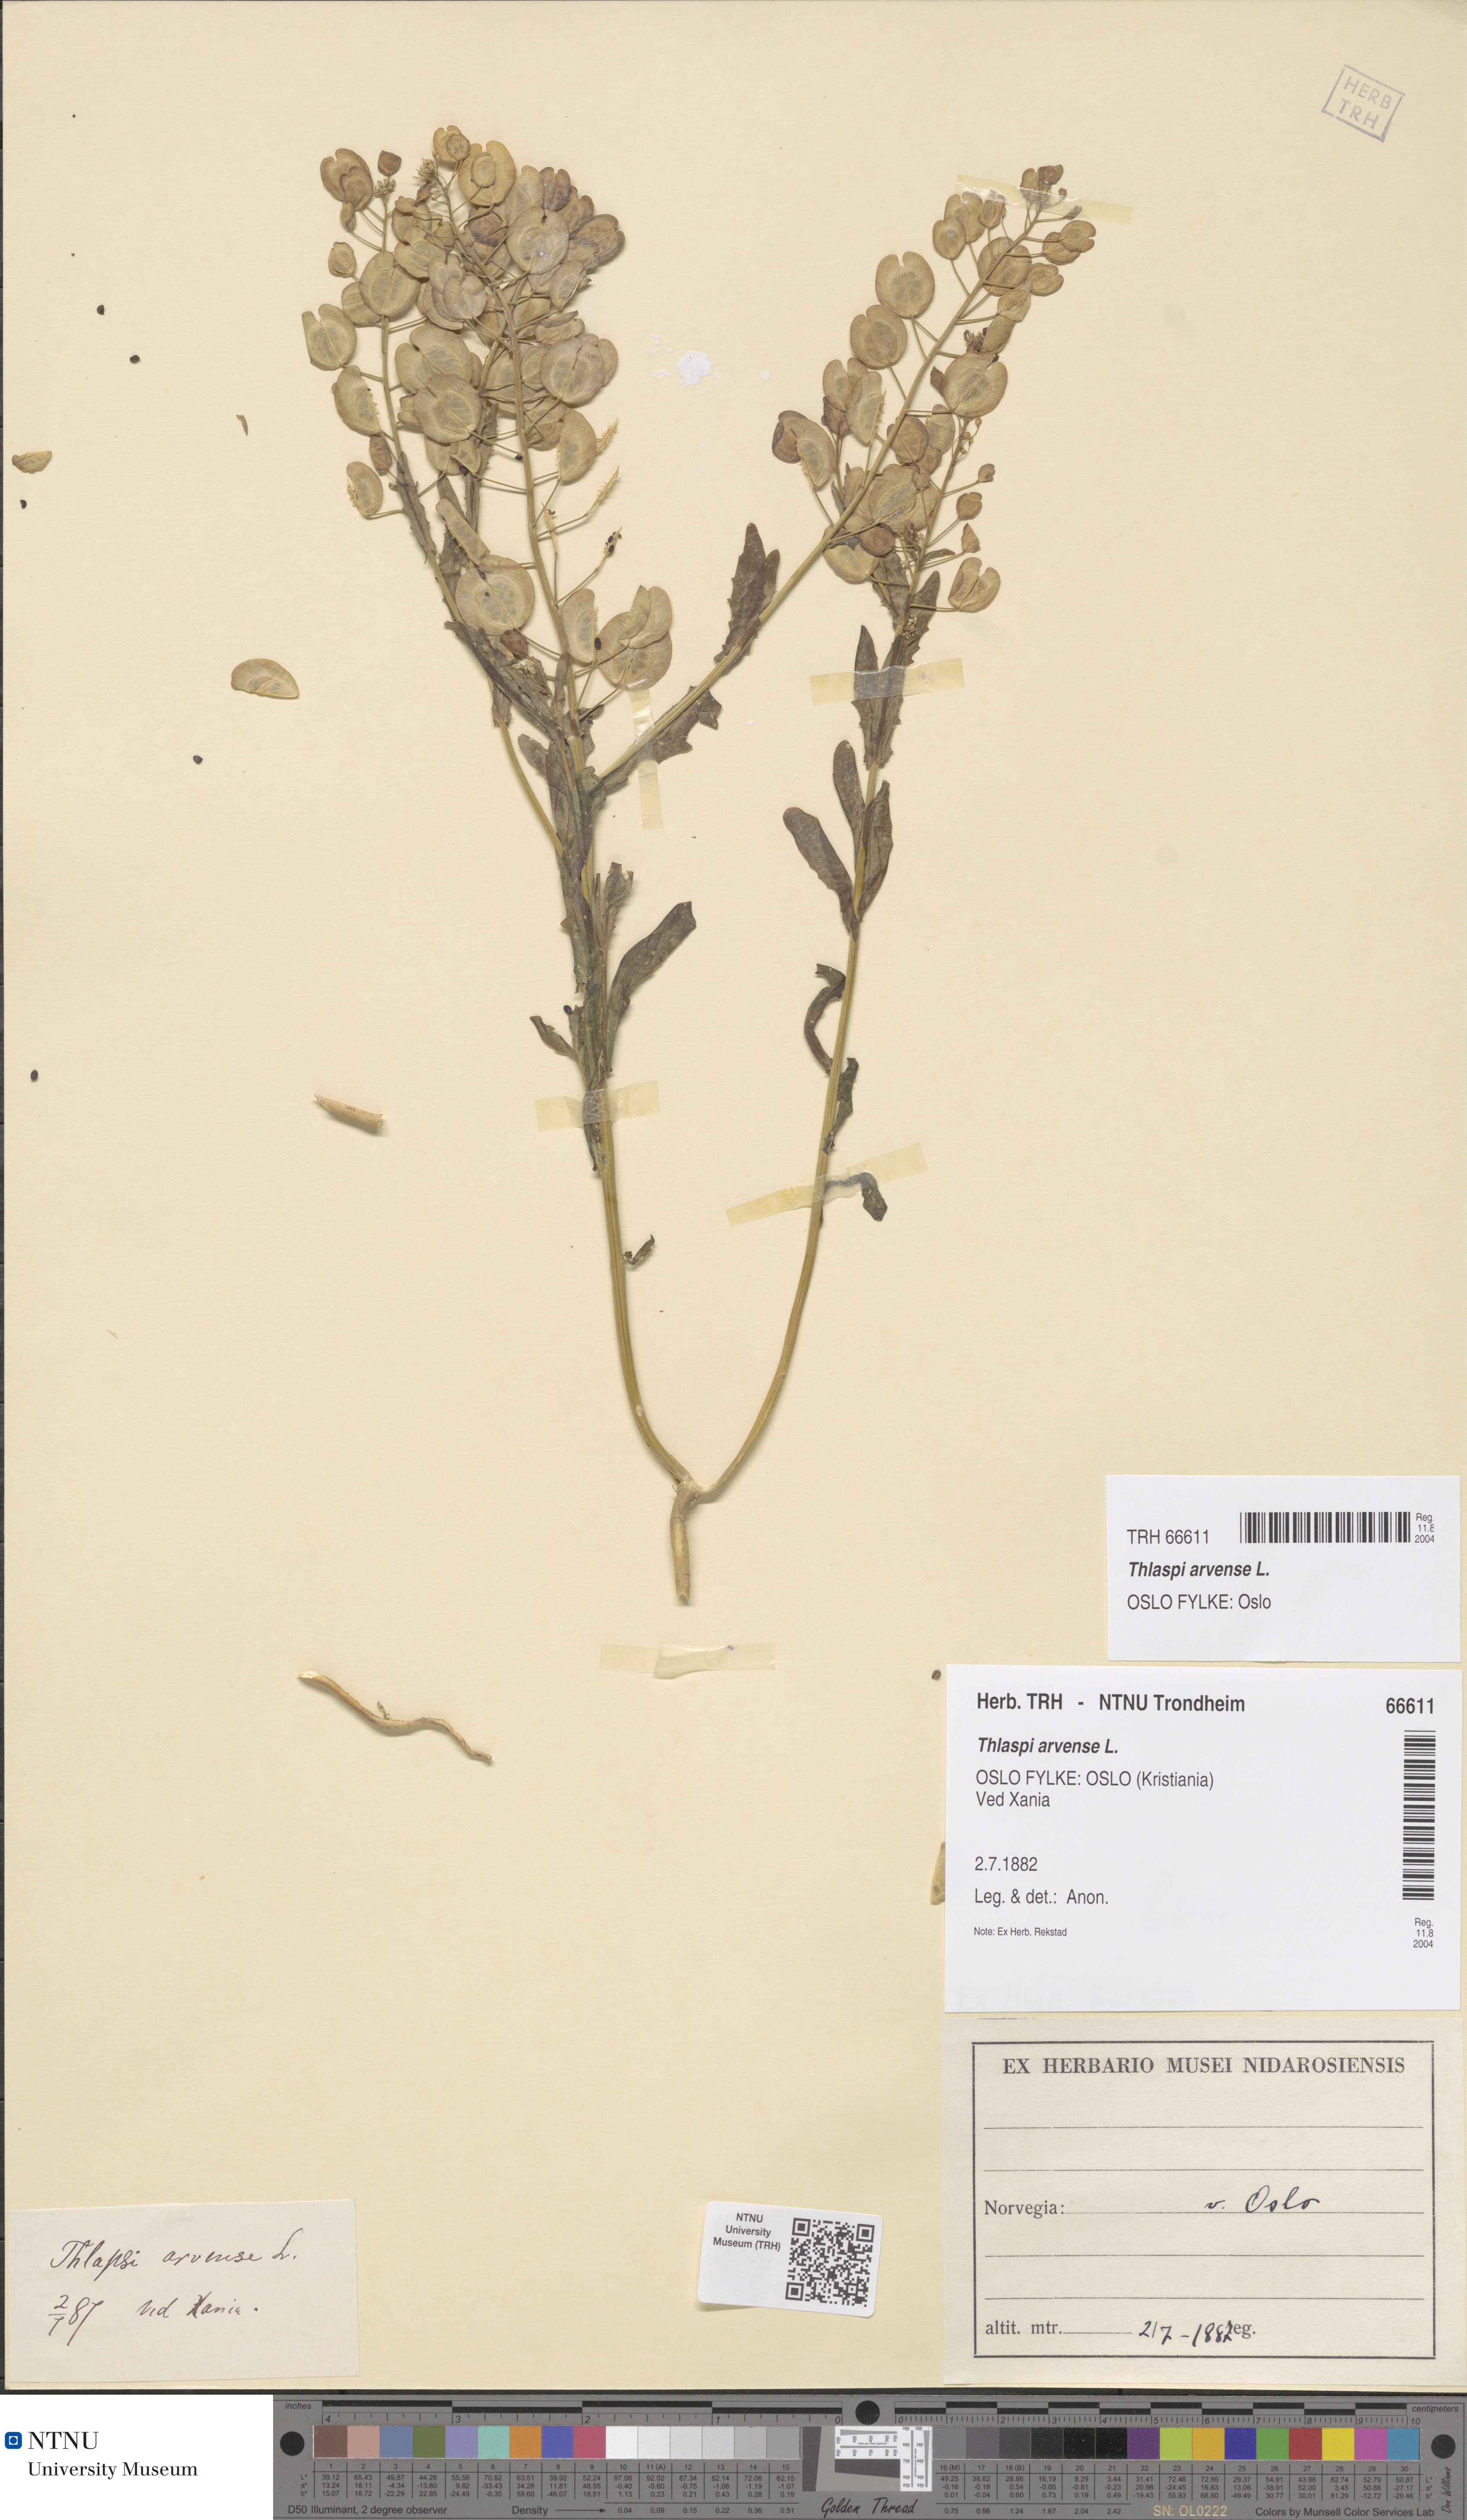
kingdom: Plantae
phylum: Tracheophyta
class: Magnoliopsida
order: Brassicales
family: Brassicaceae
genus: Thlaspi
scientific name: Thlaspi arvense
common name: Field pennycress
